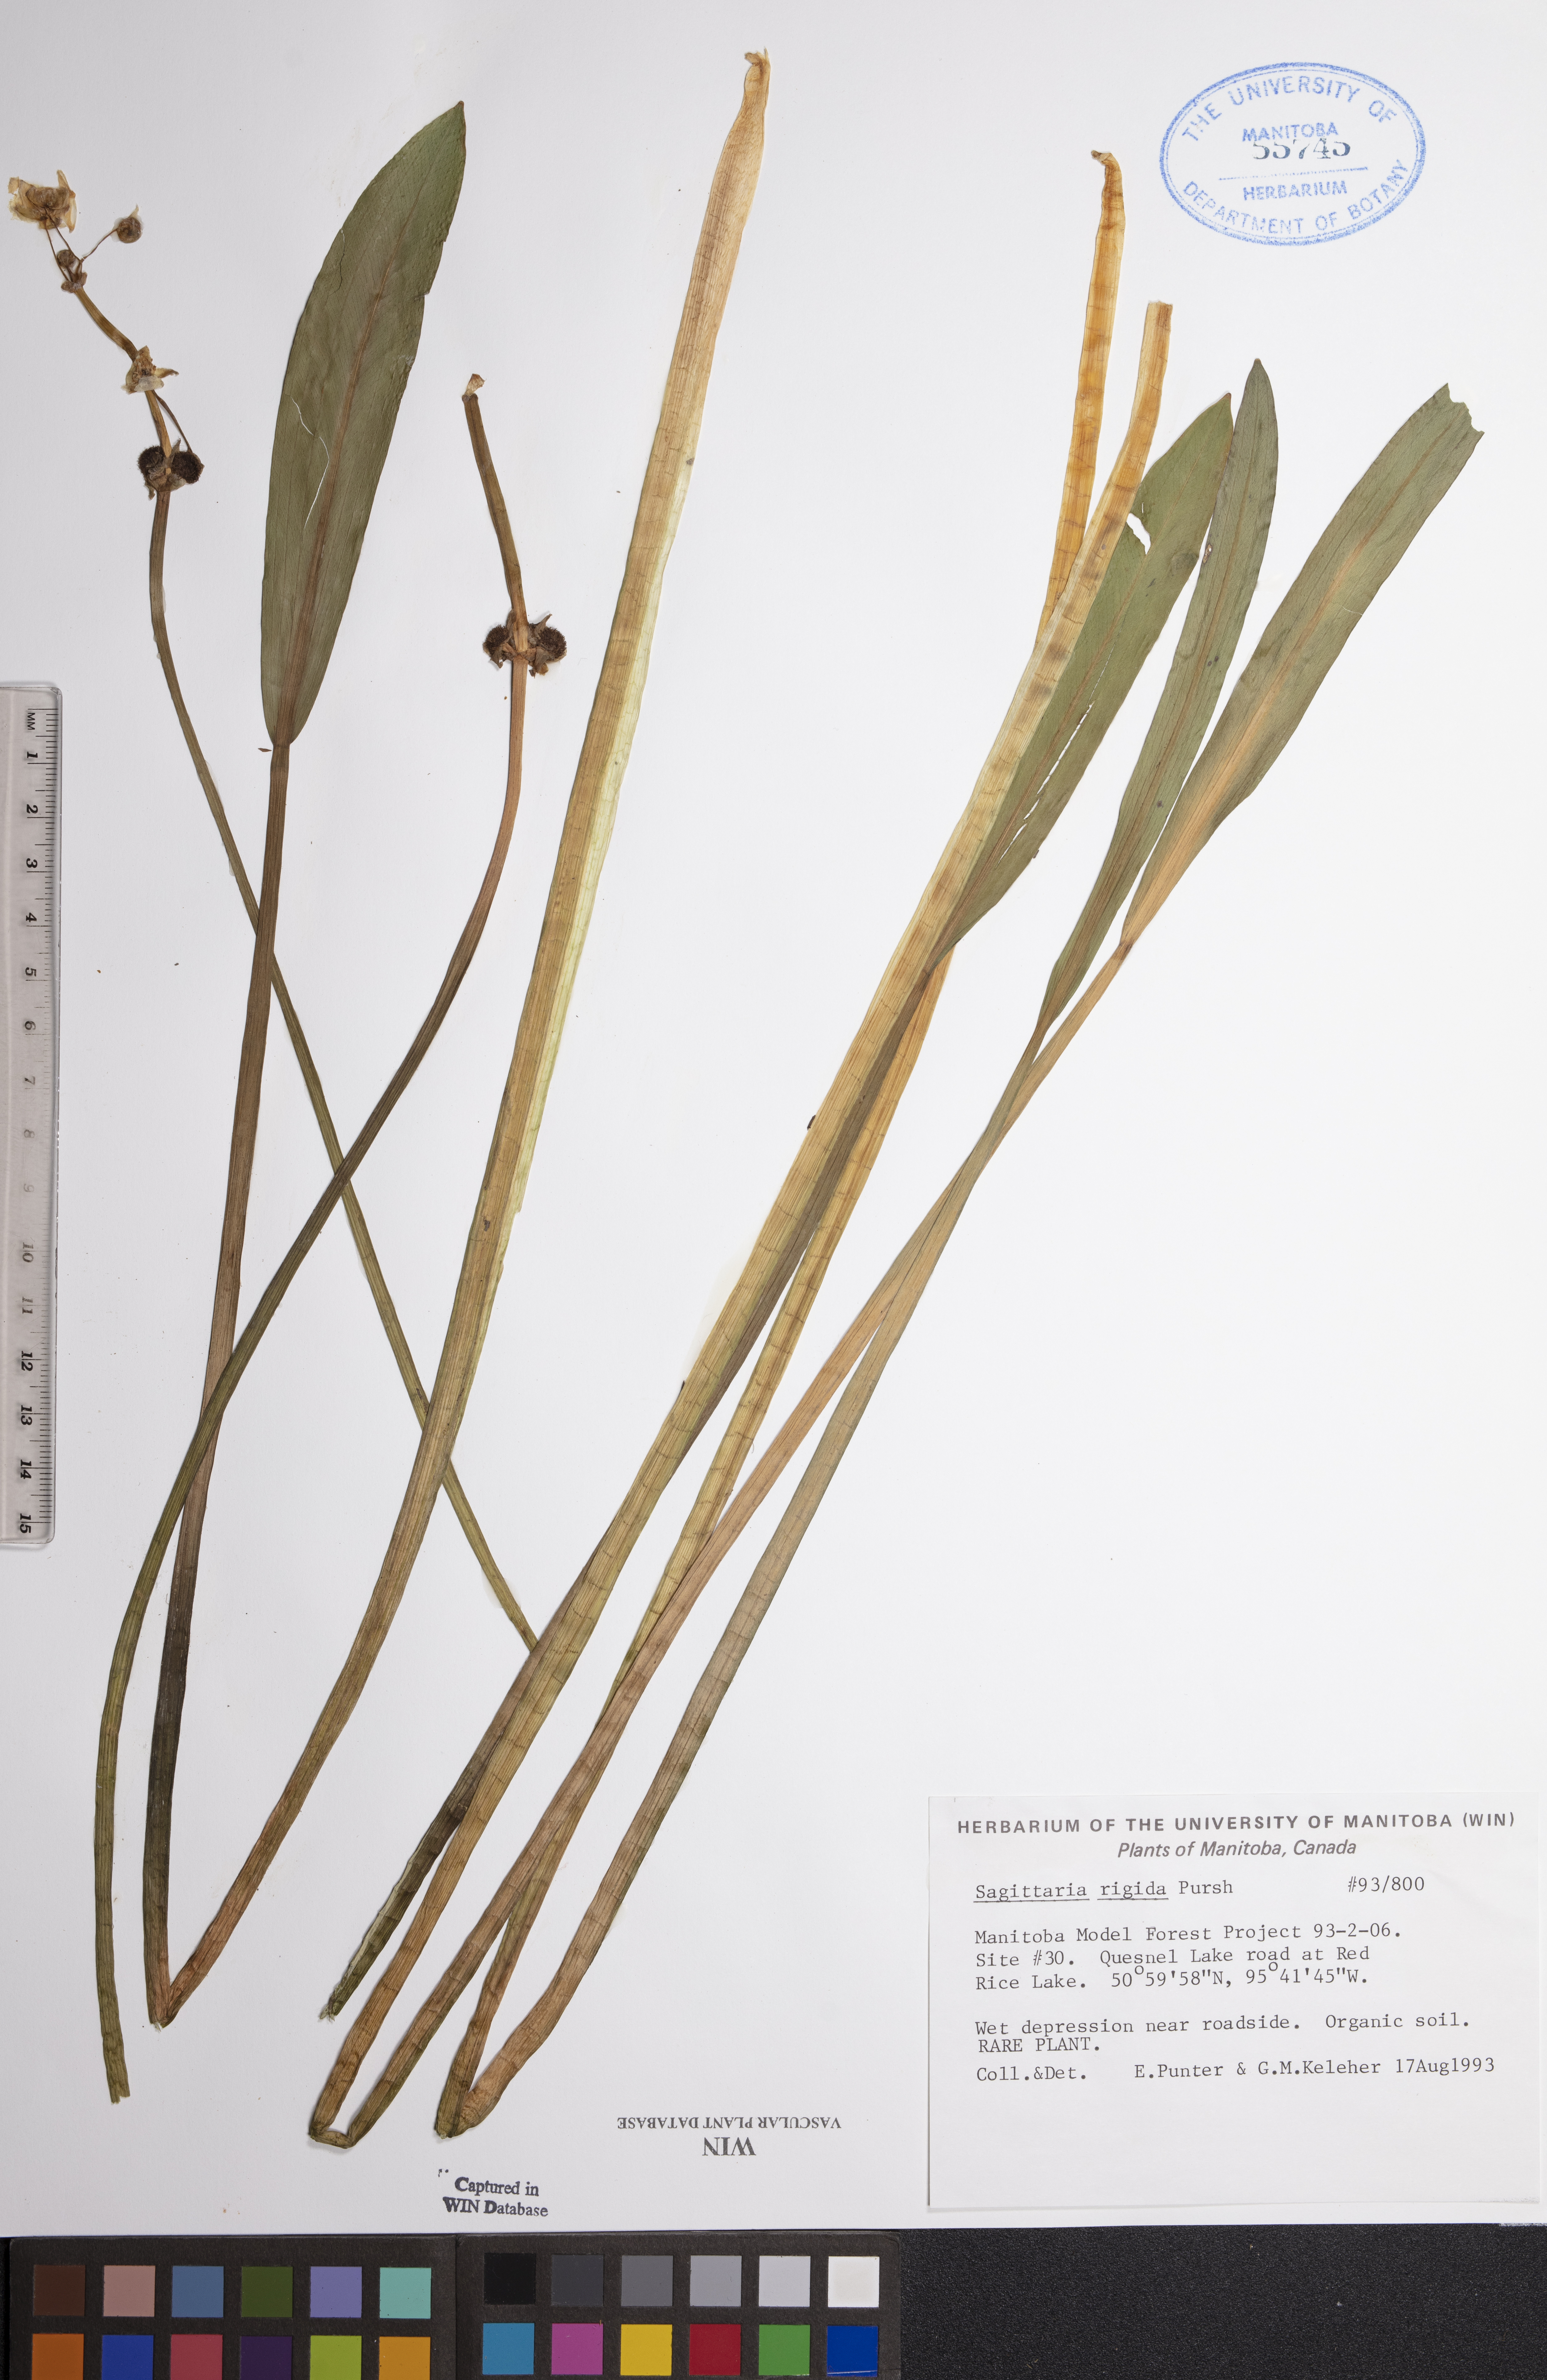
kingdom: Plantae
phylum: Tracheophyta
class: Liliopsida
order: Alismatales
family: Alismataceae
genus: Sagittaria
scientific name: Sagittaria rigida
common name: Canadian arrowhead
